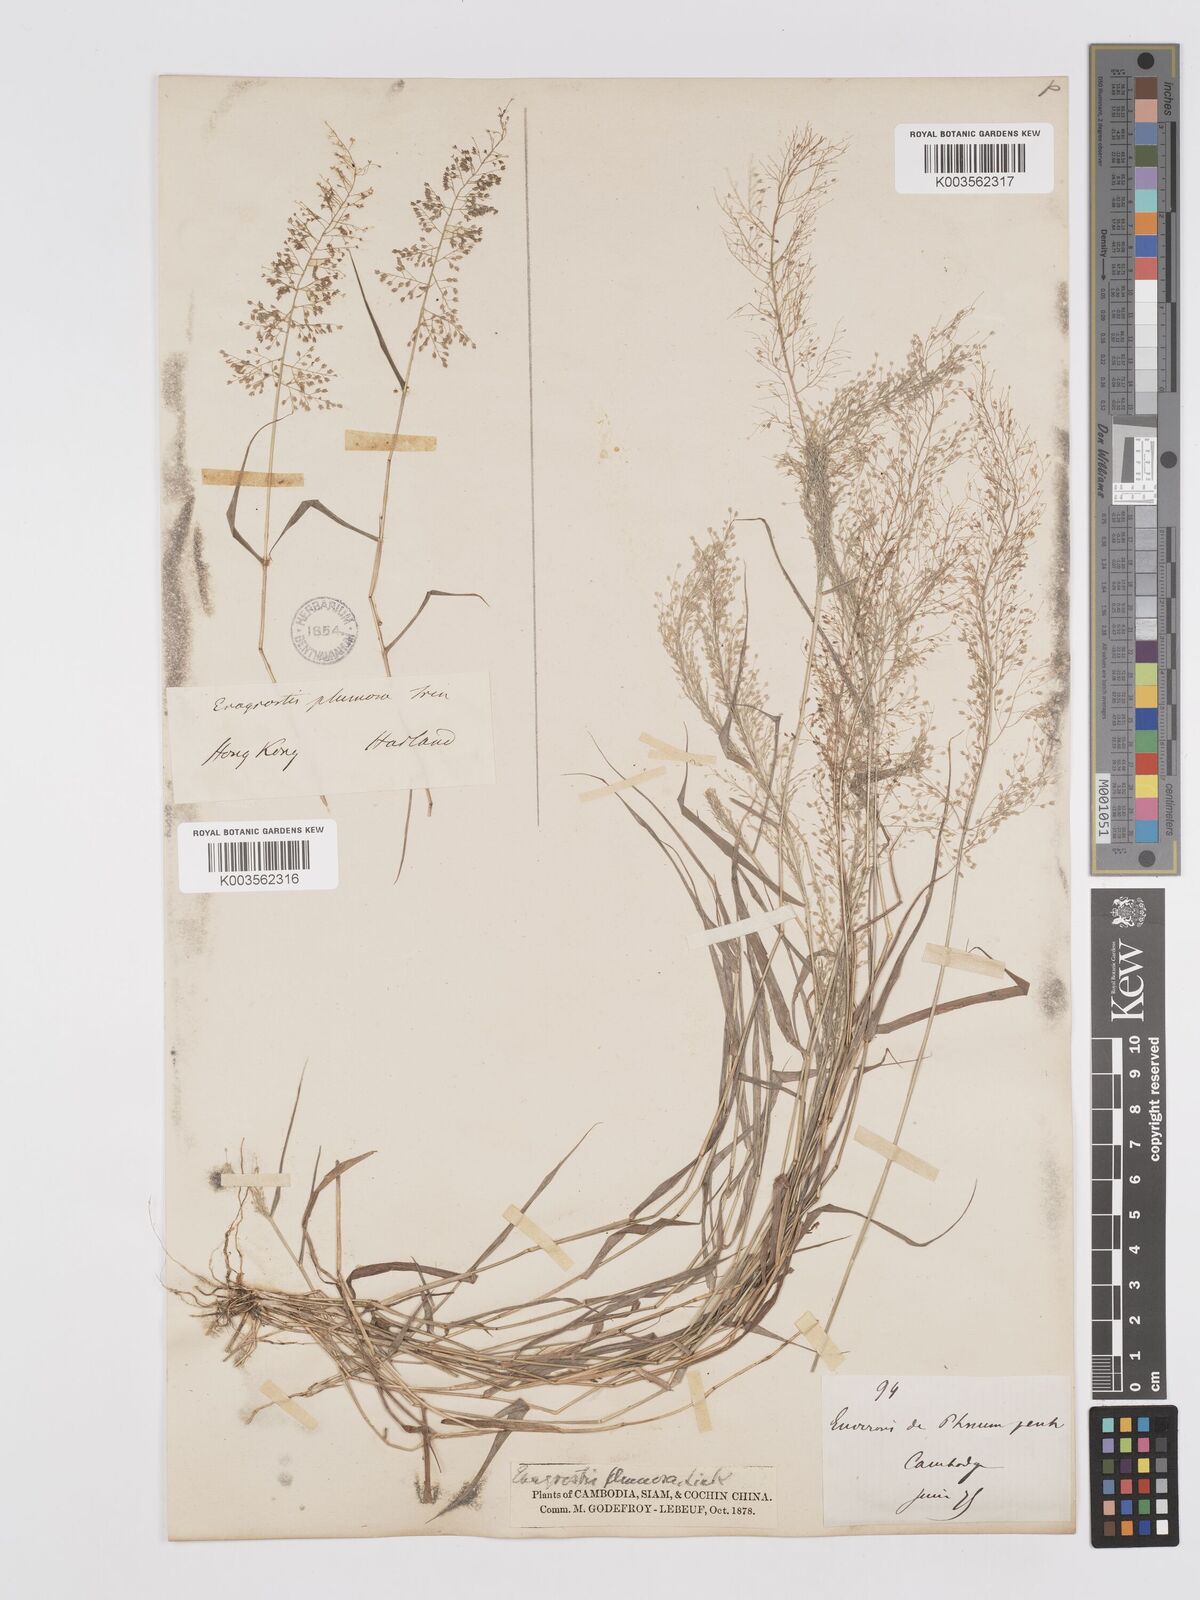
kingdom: Plantae
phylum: Tracheophyta
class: Liliopsida
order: Poales
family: Poaceae
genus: Eragrostis
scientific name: Eragrostis tenella
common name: Japanese lovegrass
